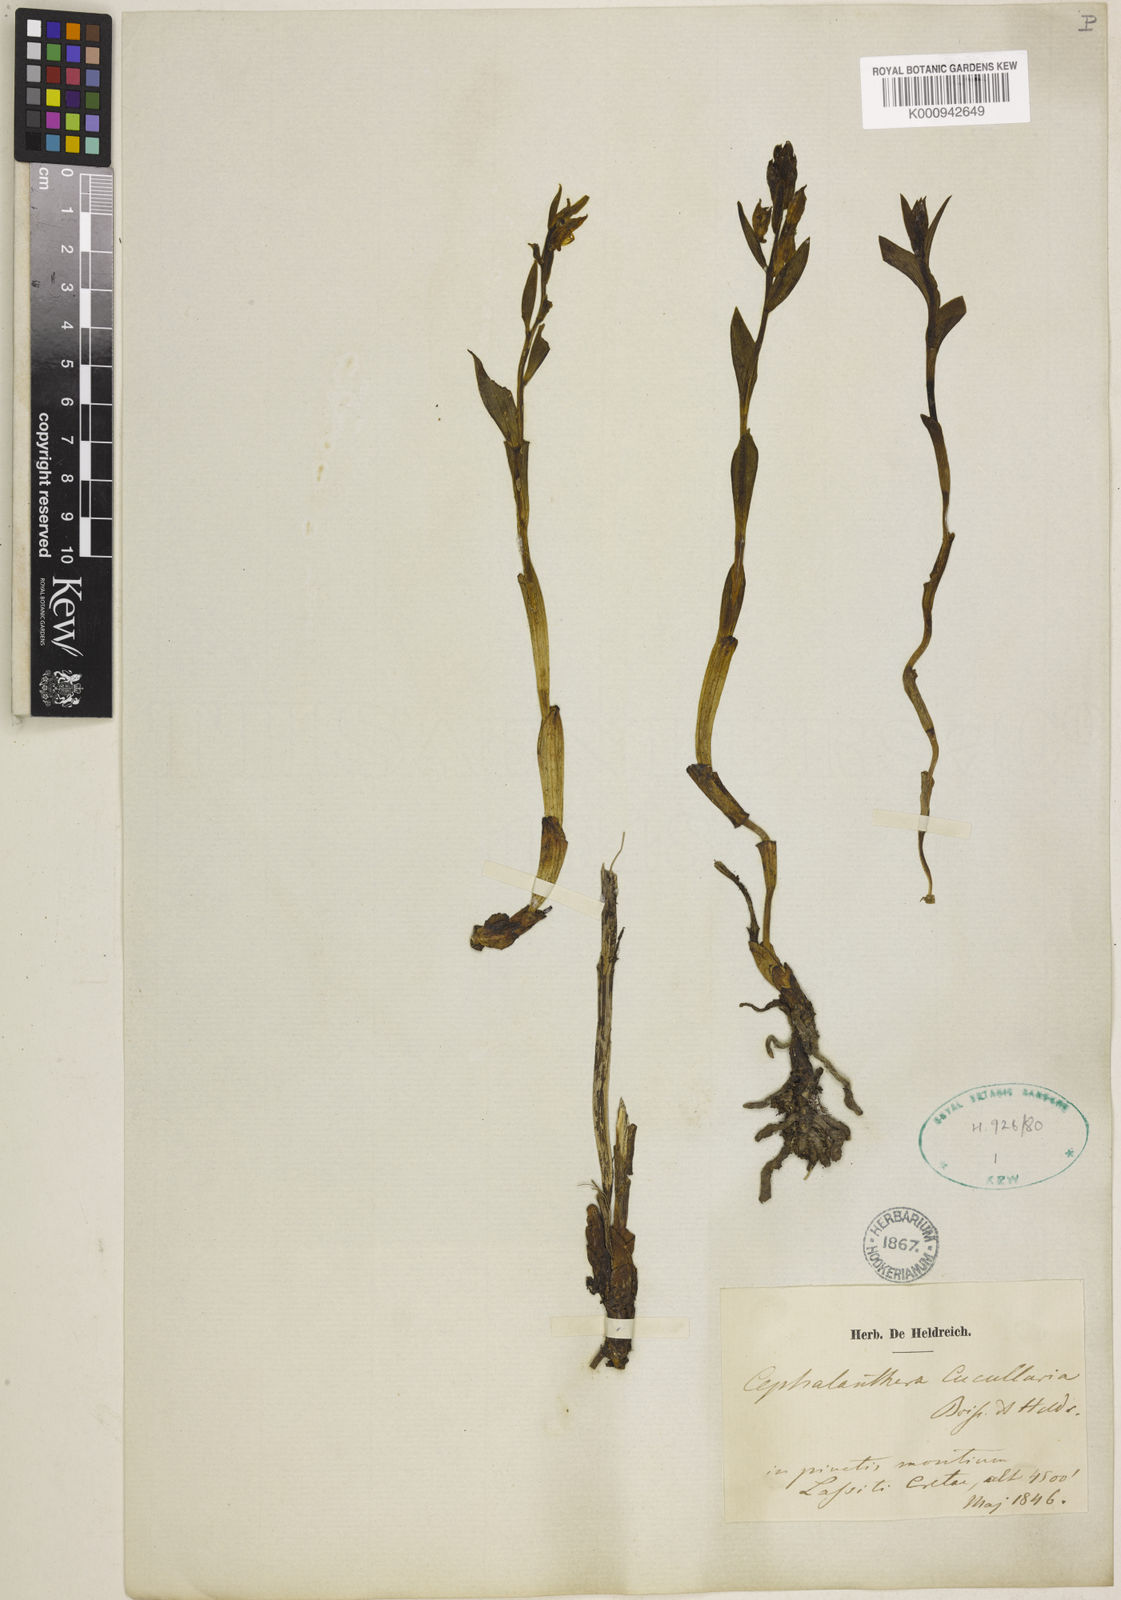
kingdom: Plantae
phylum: Tracheophyta
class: Liliopsida
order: Asparagales
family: Orchidaceae
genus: Cephalanthera
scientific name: Cephalanthera cucullata
